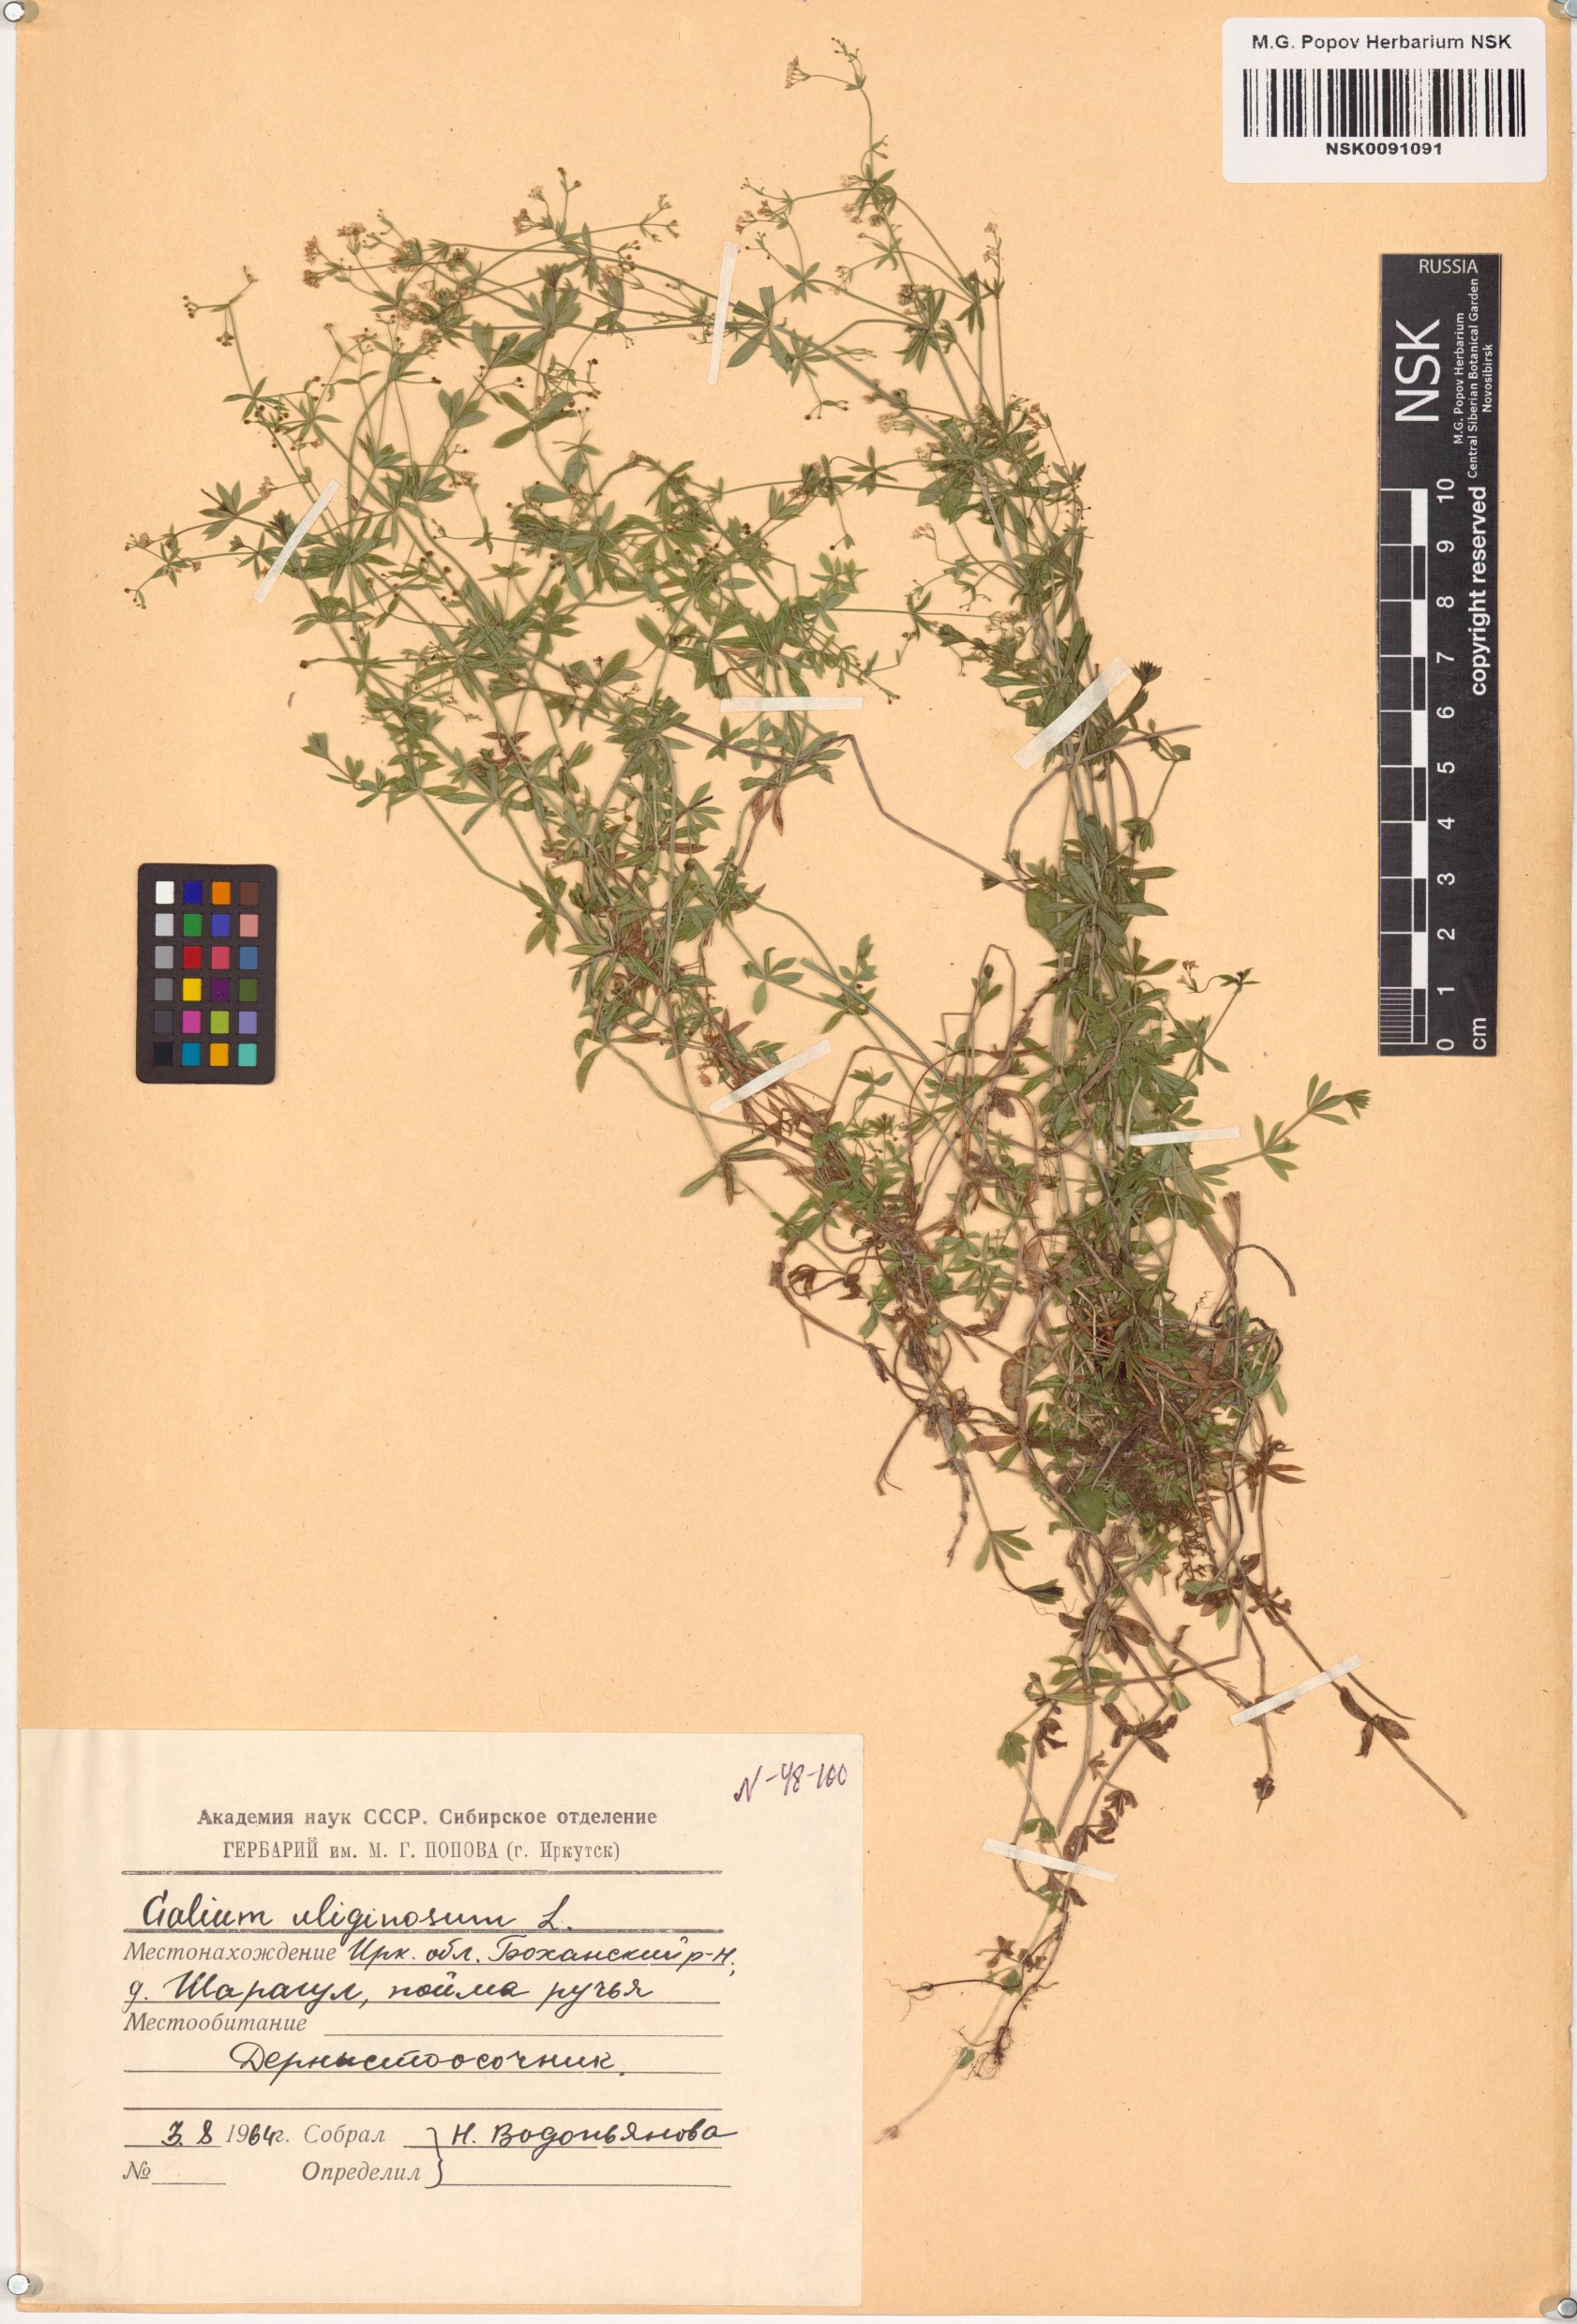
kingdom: Plantae
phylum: Tracheophyta
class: Magnoliopsida
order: Gentianales
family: Rubiaceae
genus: Galium
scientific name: Galium uliginosum
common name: Fen bedstraw
